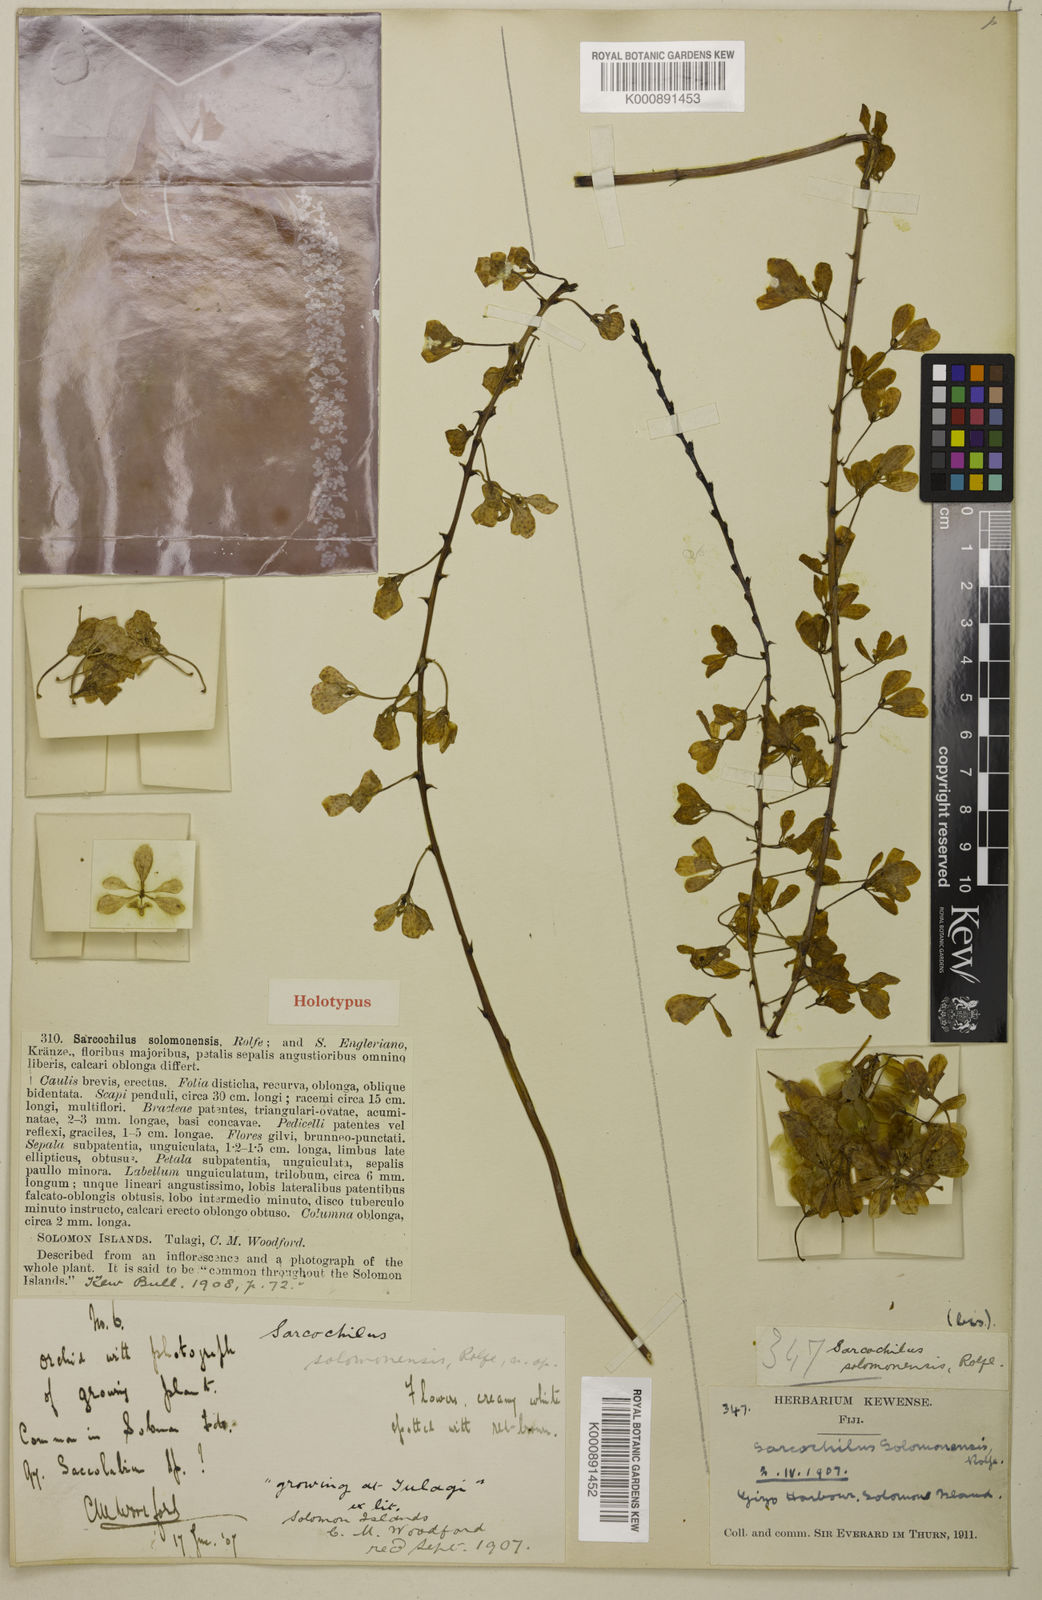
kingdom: Plantae
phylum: Tracheophyta
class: Liliopsida
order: Asparagales
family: Orchidaceae
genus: Bogoria
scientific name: Bogoria moorei
